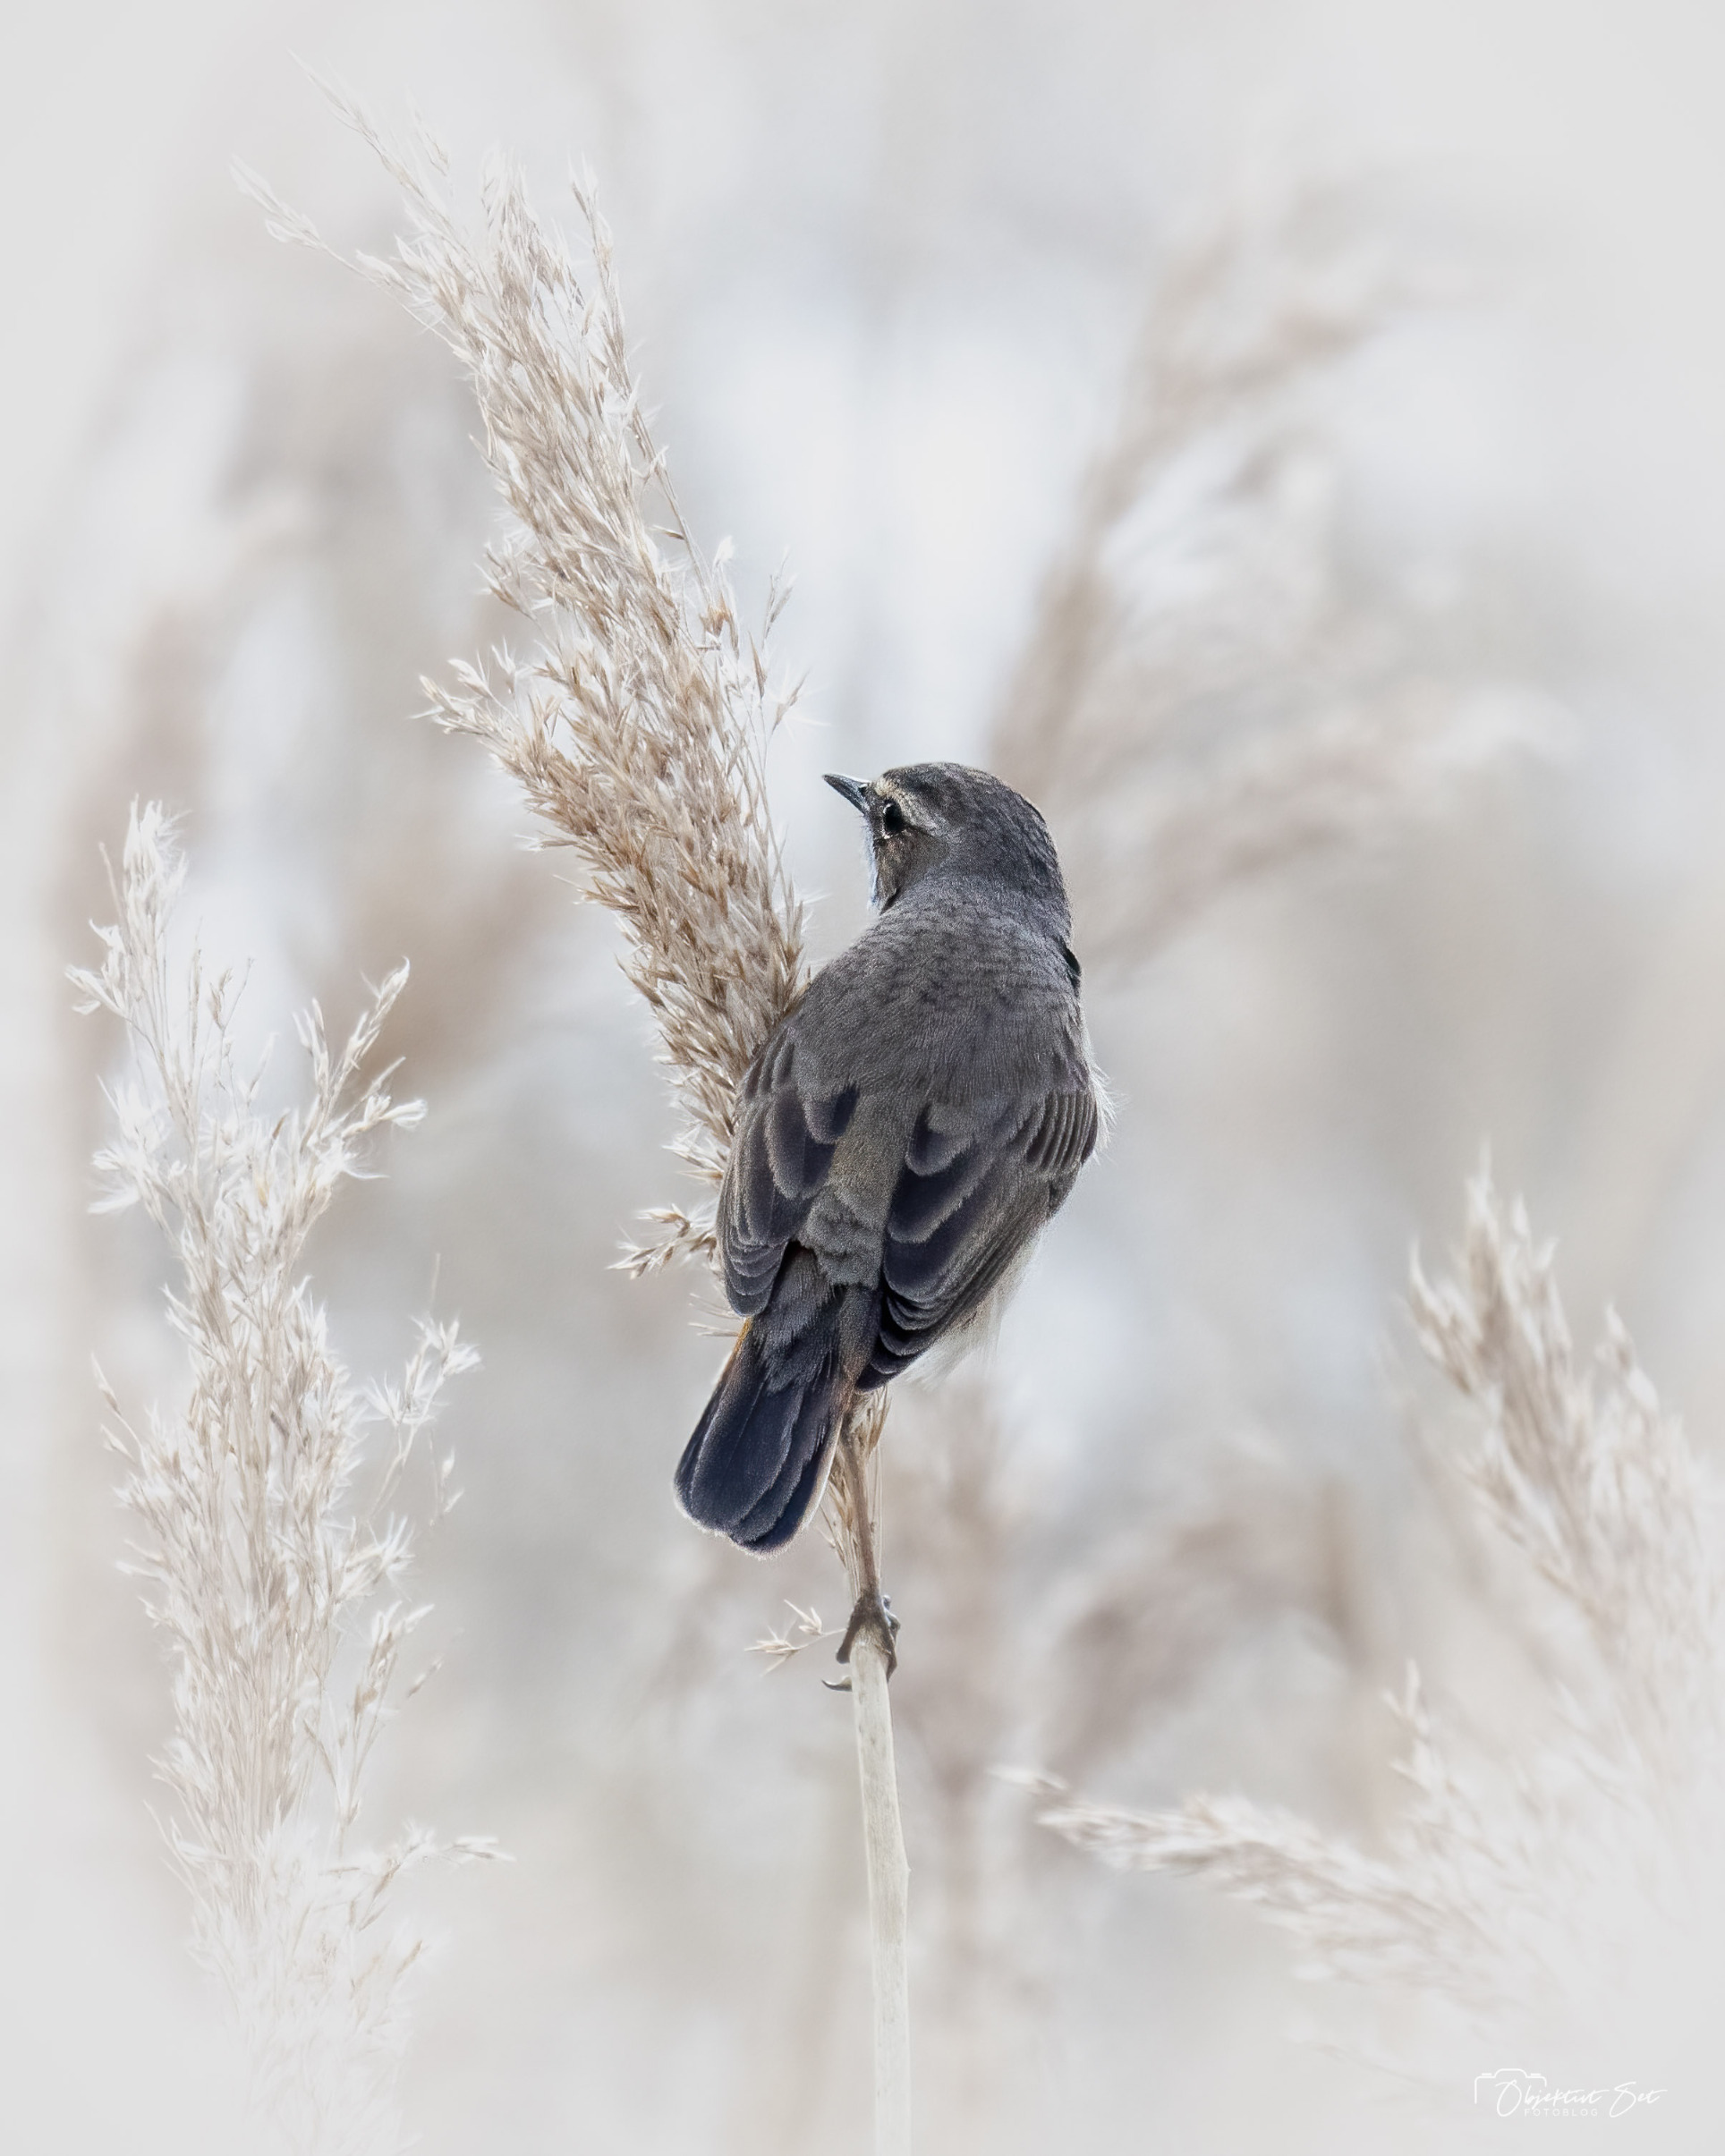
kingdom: Animalia
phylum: Chordata
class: Aves
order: Passeriformes
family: Muscicapidae
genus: Luscinia
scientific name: Luscinia svecica
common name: Blåhals
